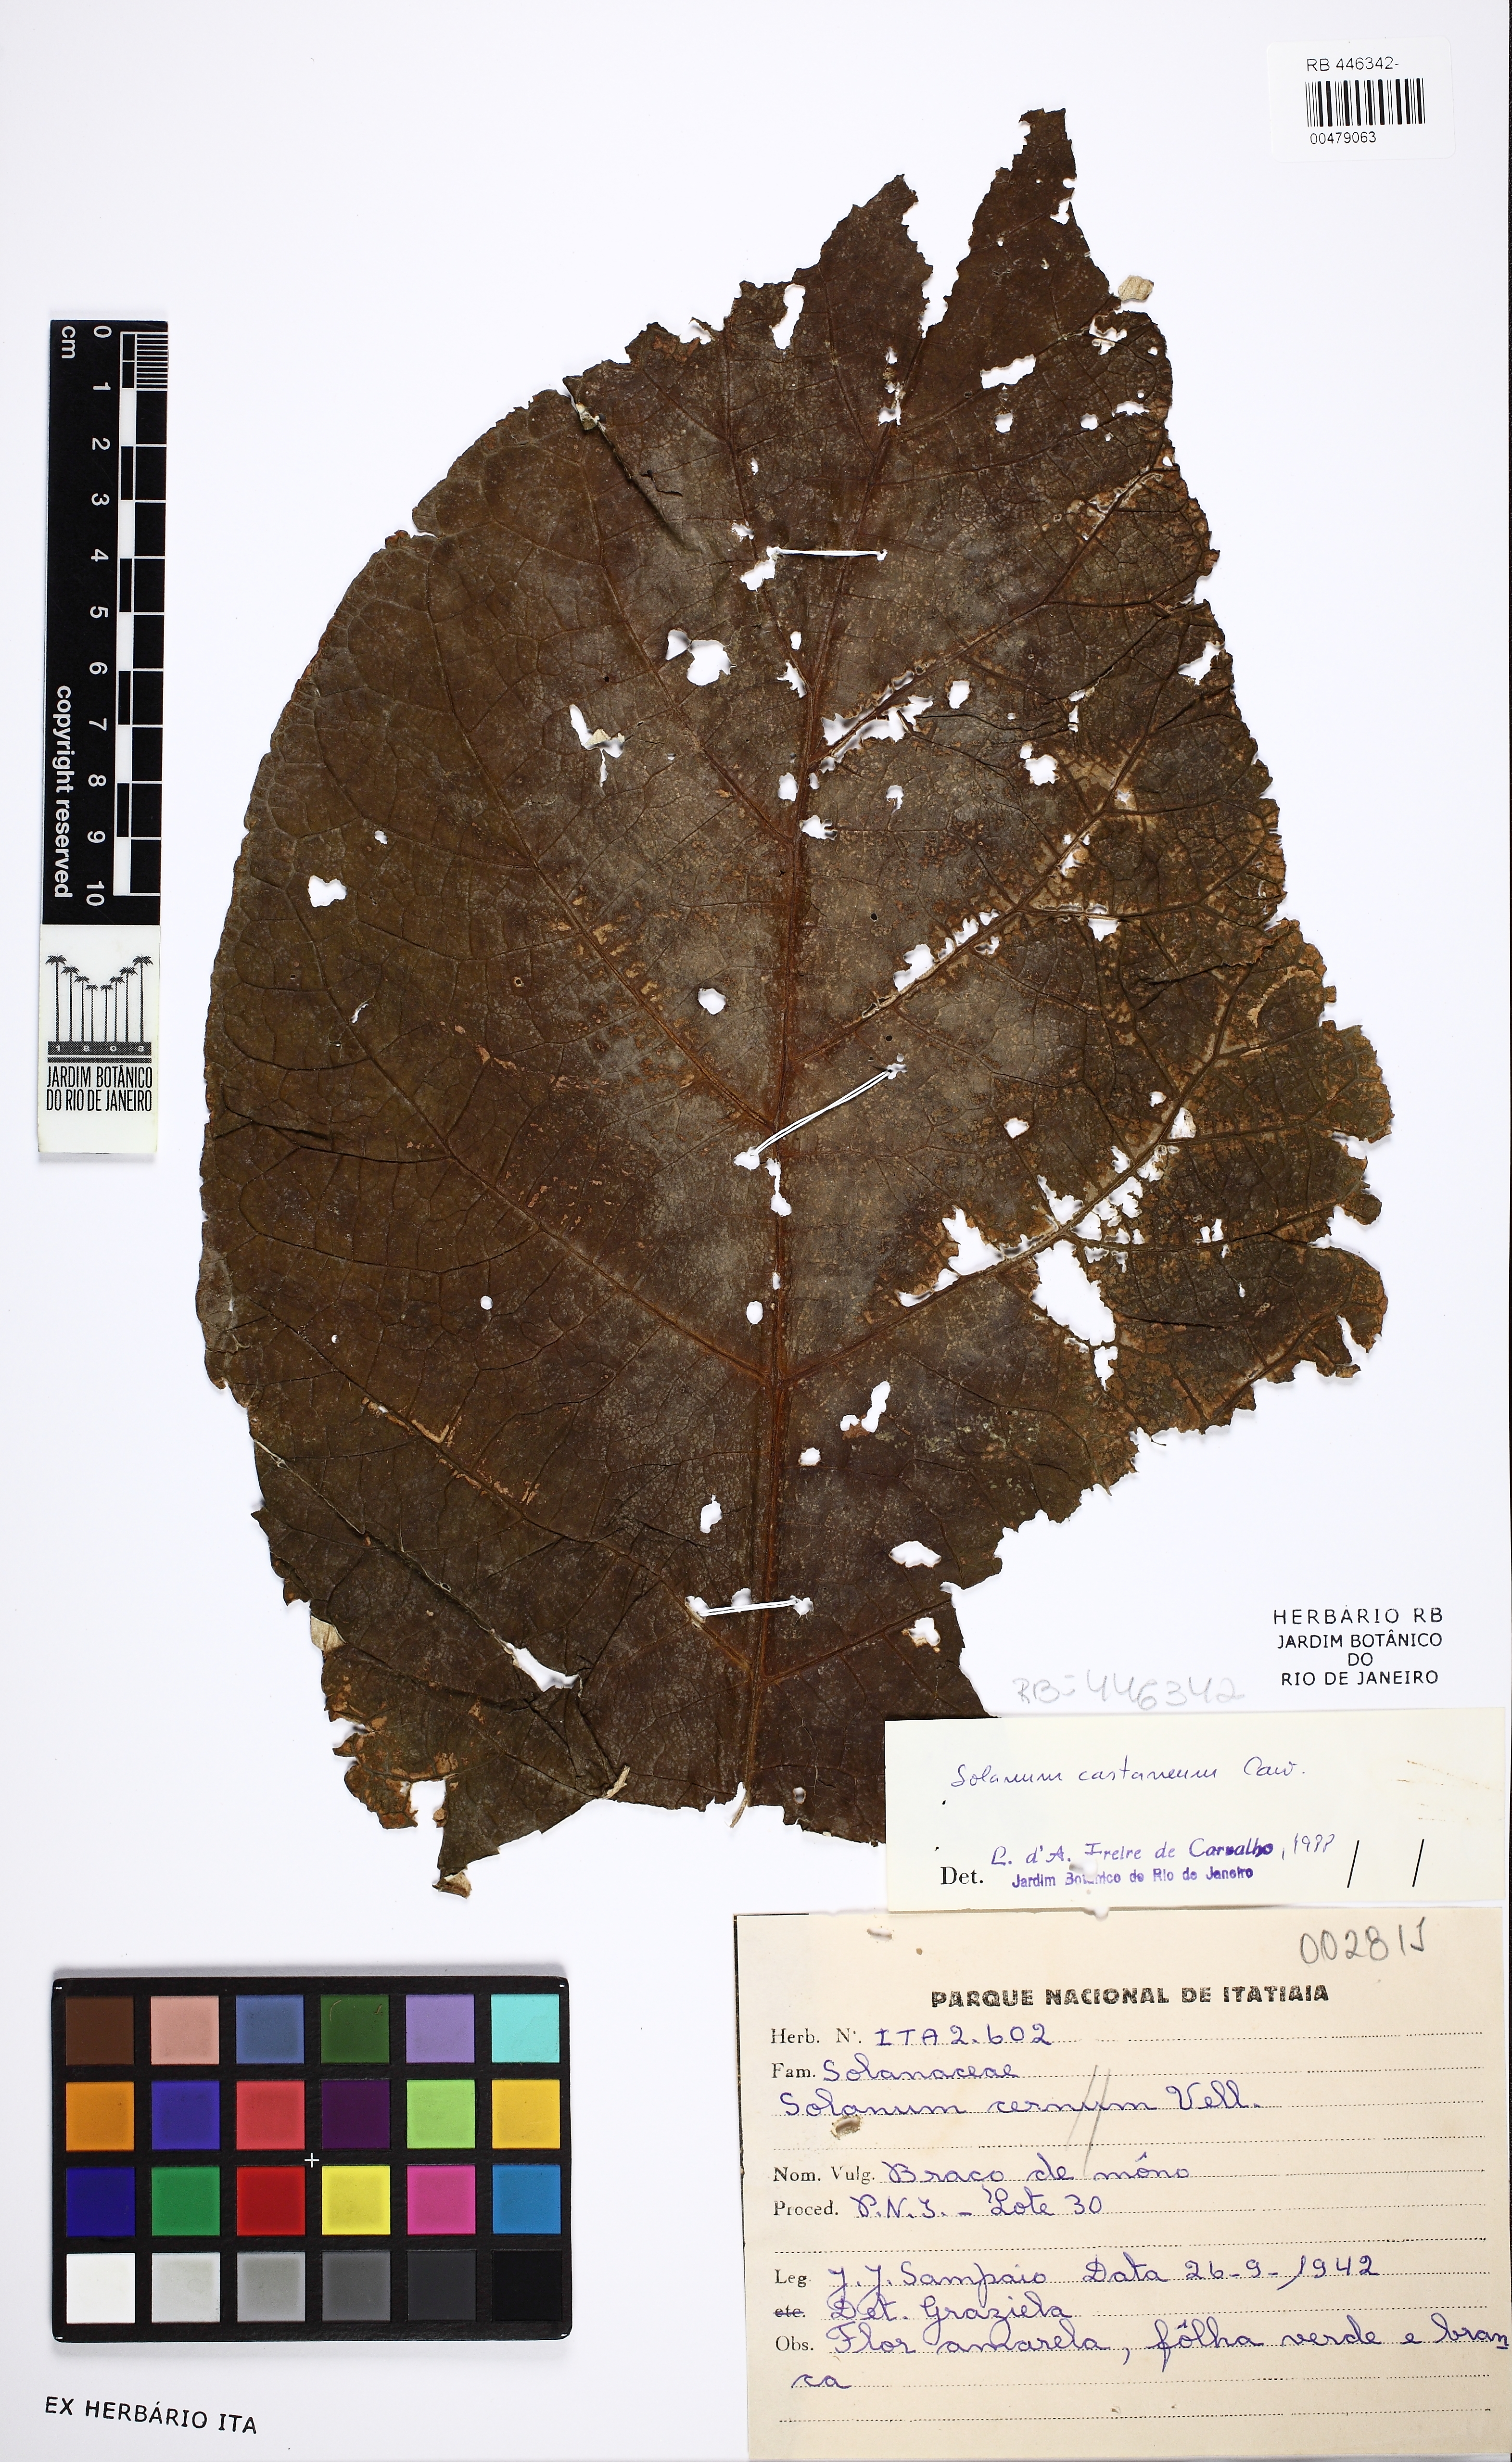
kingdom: Plantae
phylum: Tracheophyta
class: Magnoliopsida
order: Solanales
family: Solanaceae
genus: Solanum
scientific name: Solanum castaneum
